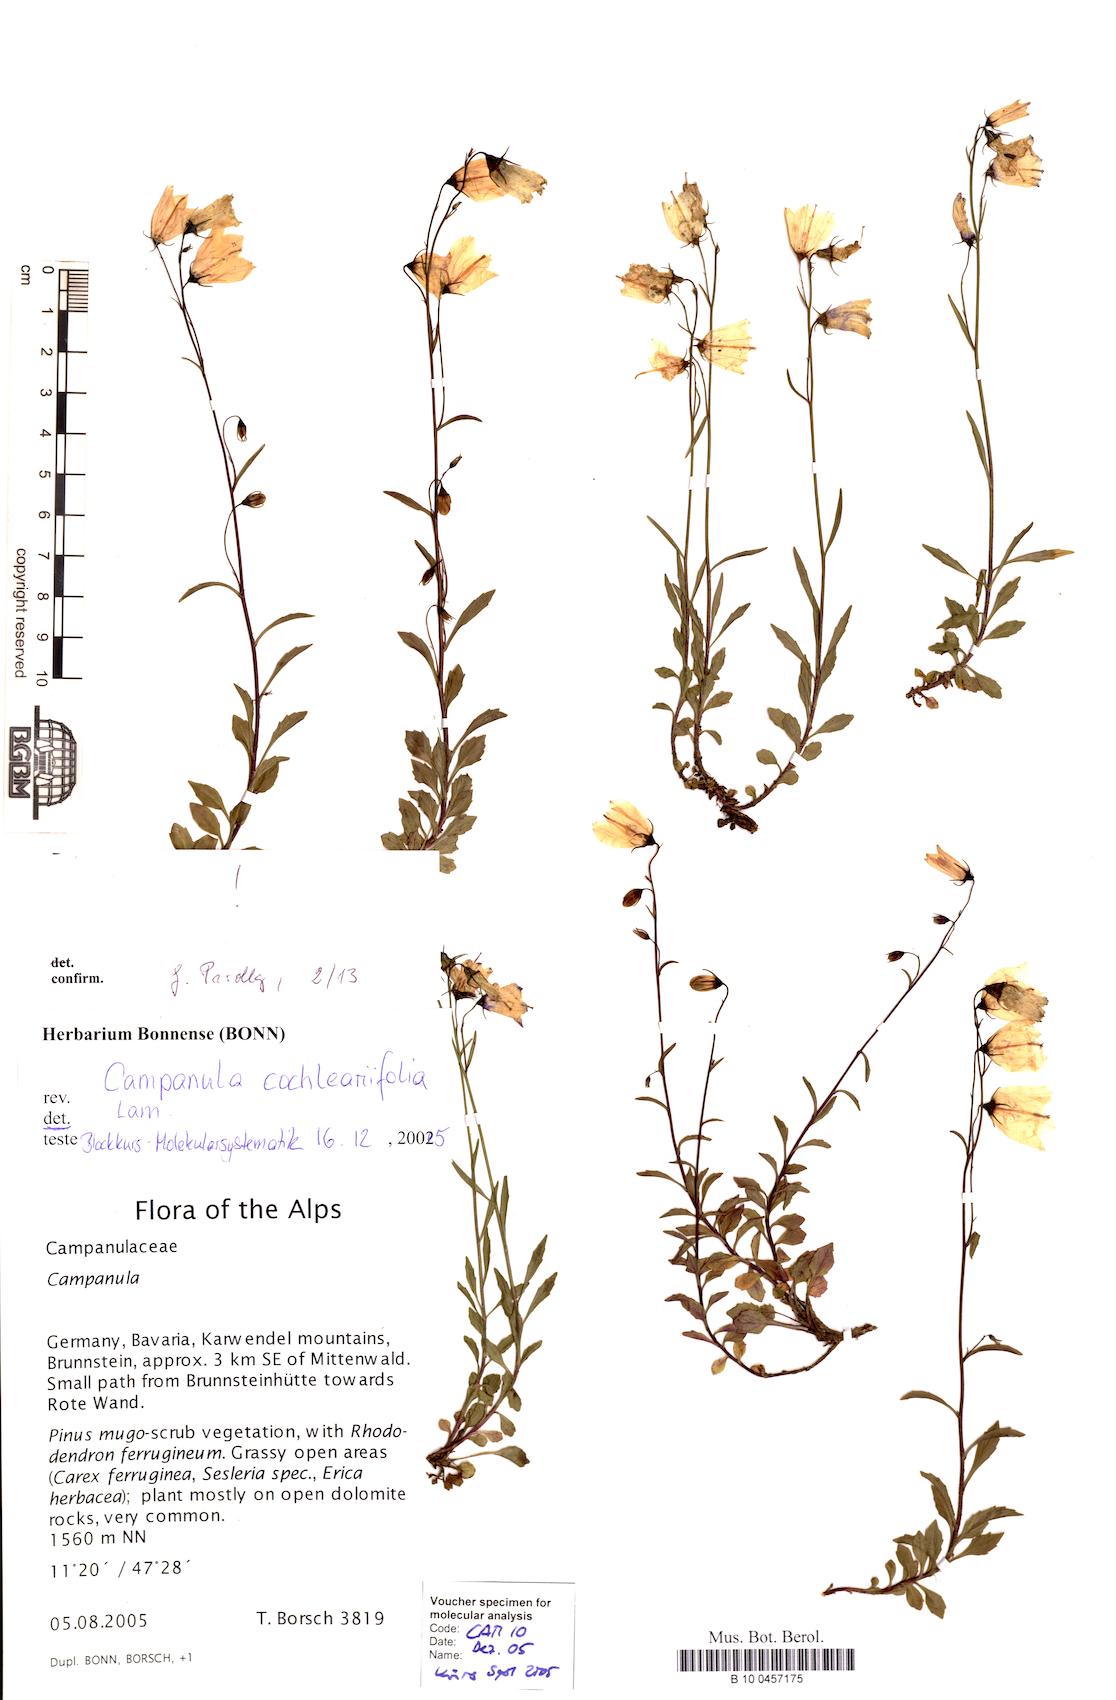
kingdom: Plantae
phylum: Tracheophyta
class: Magnoliopsida
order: Asterales
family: Campanulaceae
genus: Campanula
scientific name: Campanula cochleariifolia
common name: Fairies'-thimbles
